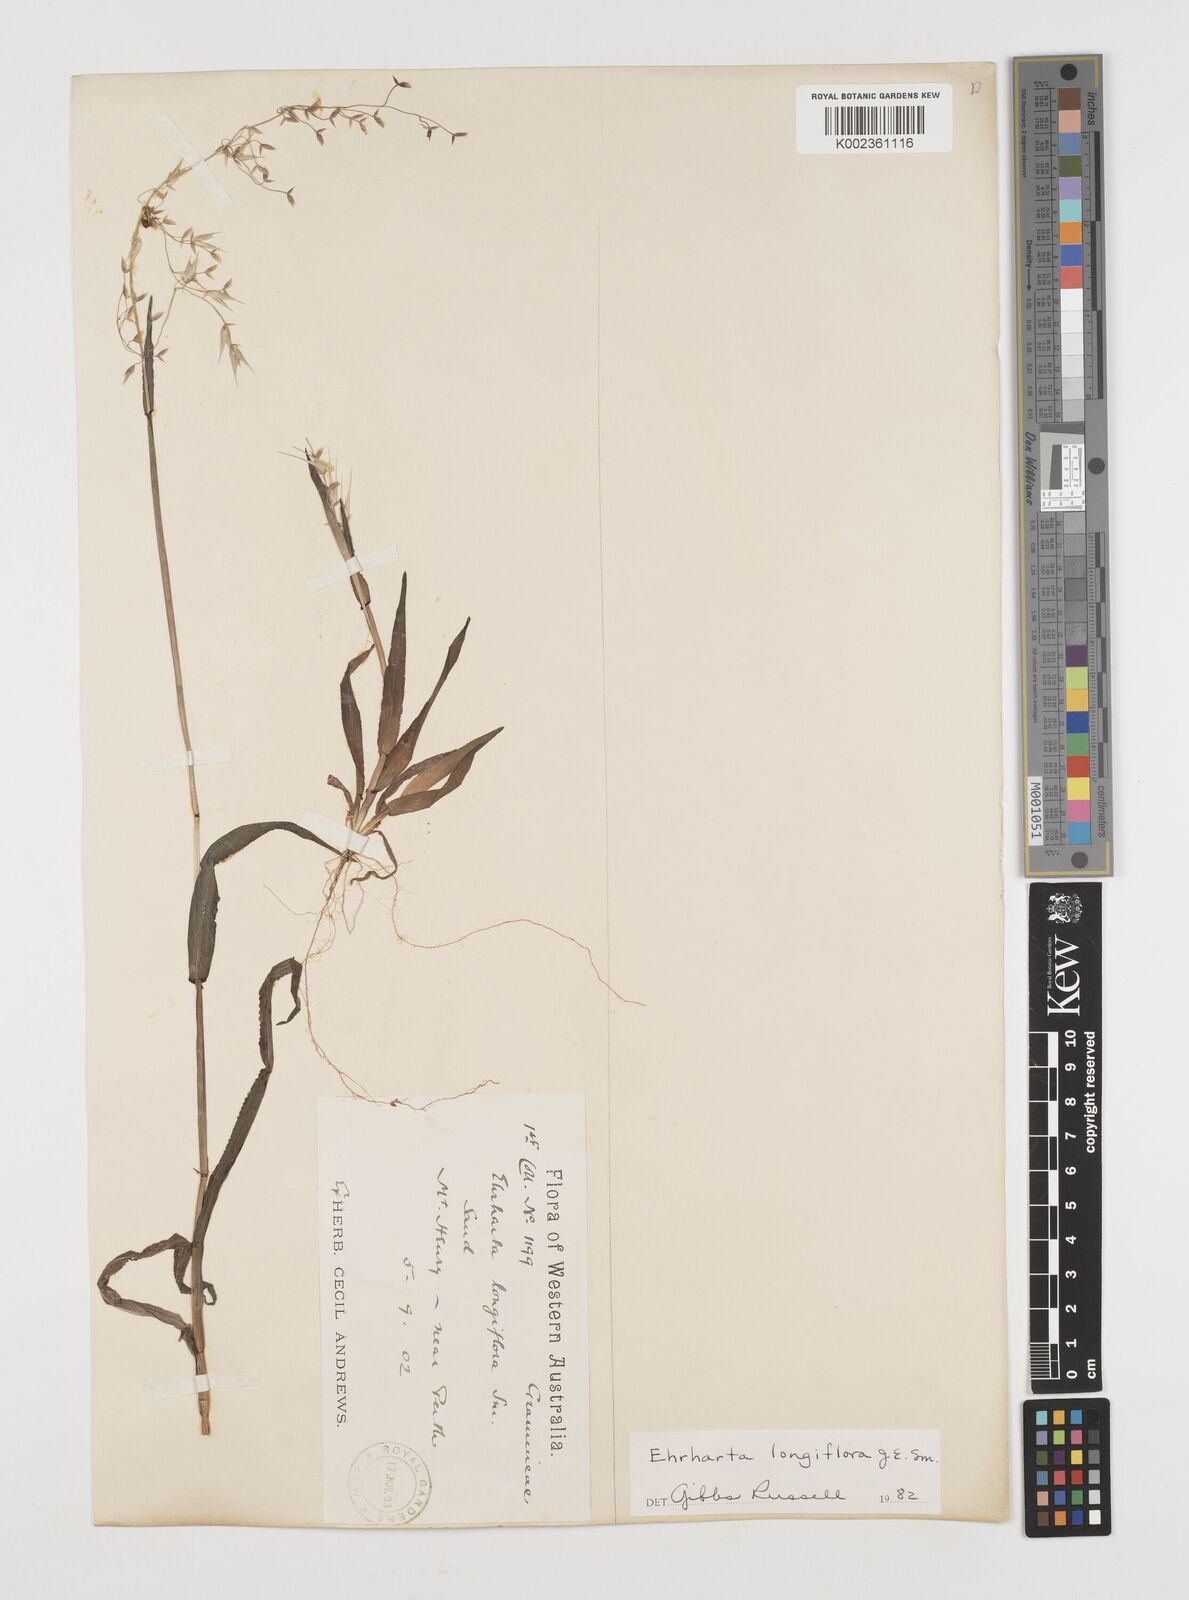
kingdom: Plantae
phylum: Tracheophyta
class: Liliopsida
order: Poales
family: Poaceae
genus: Ehrharta
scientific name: Ehrharta longiflora
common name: Longflowered veldtgrass
